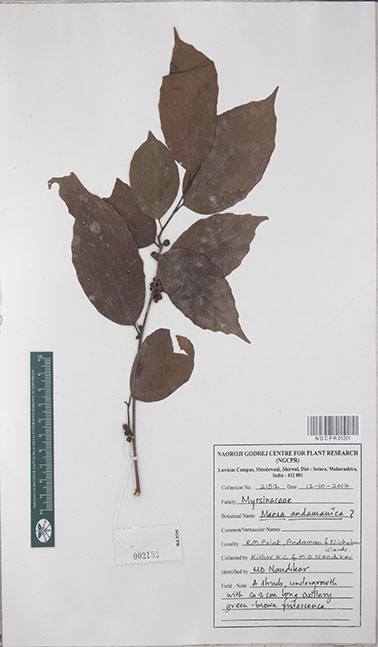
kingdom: Plantae
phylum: Tracheophyta
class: Magnoliopsida
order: Ericales
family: Primulaceae
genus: Maesa
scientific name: Maesa andamanica
